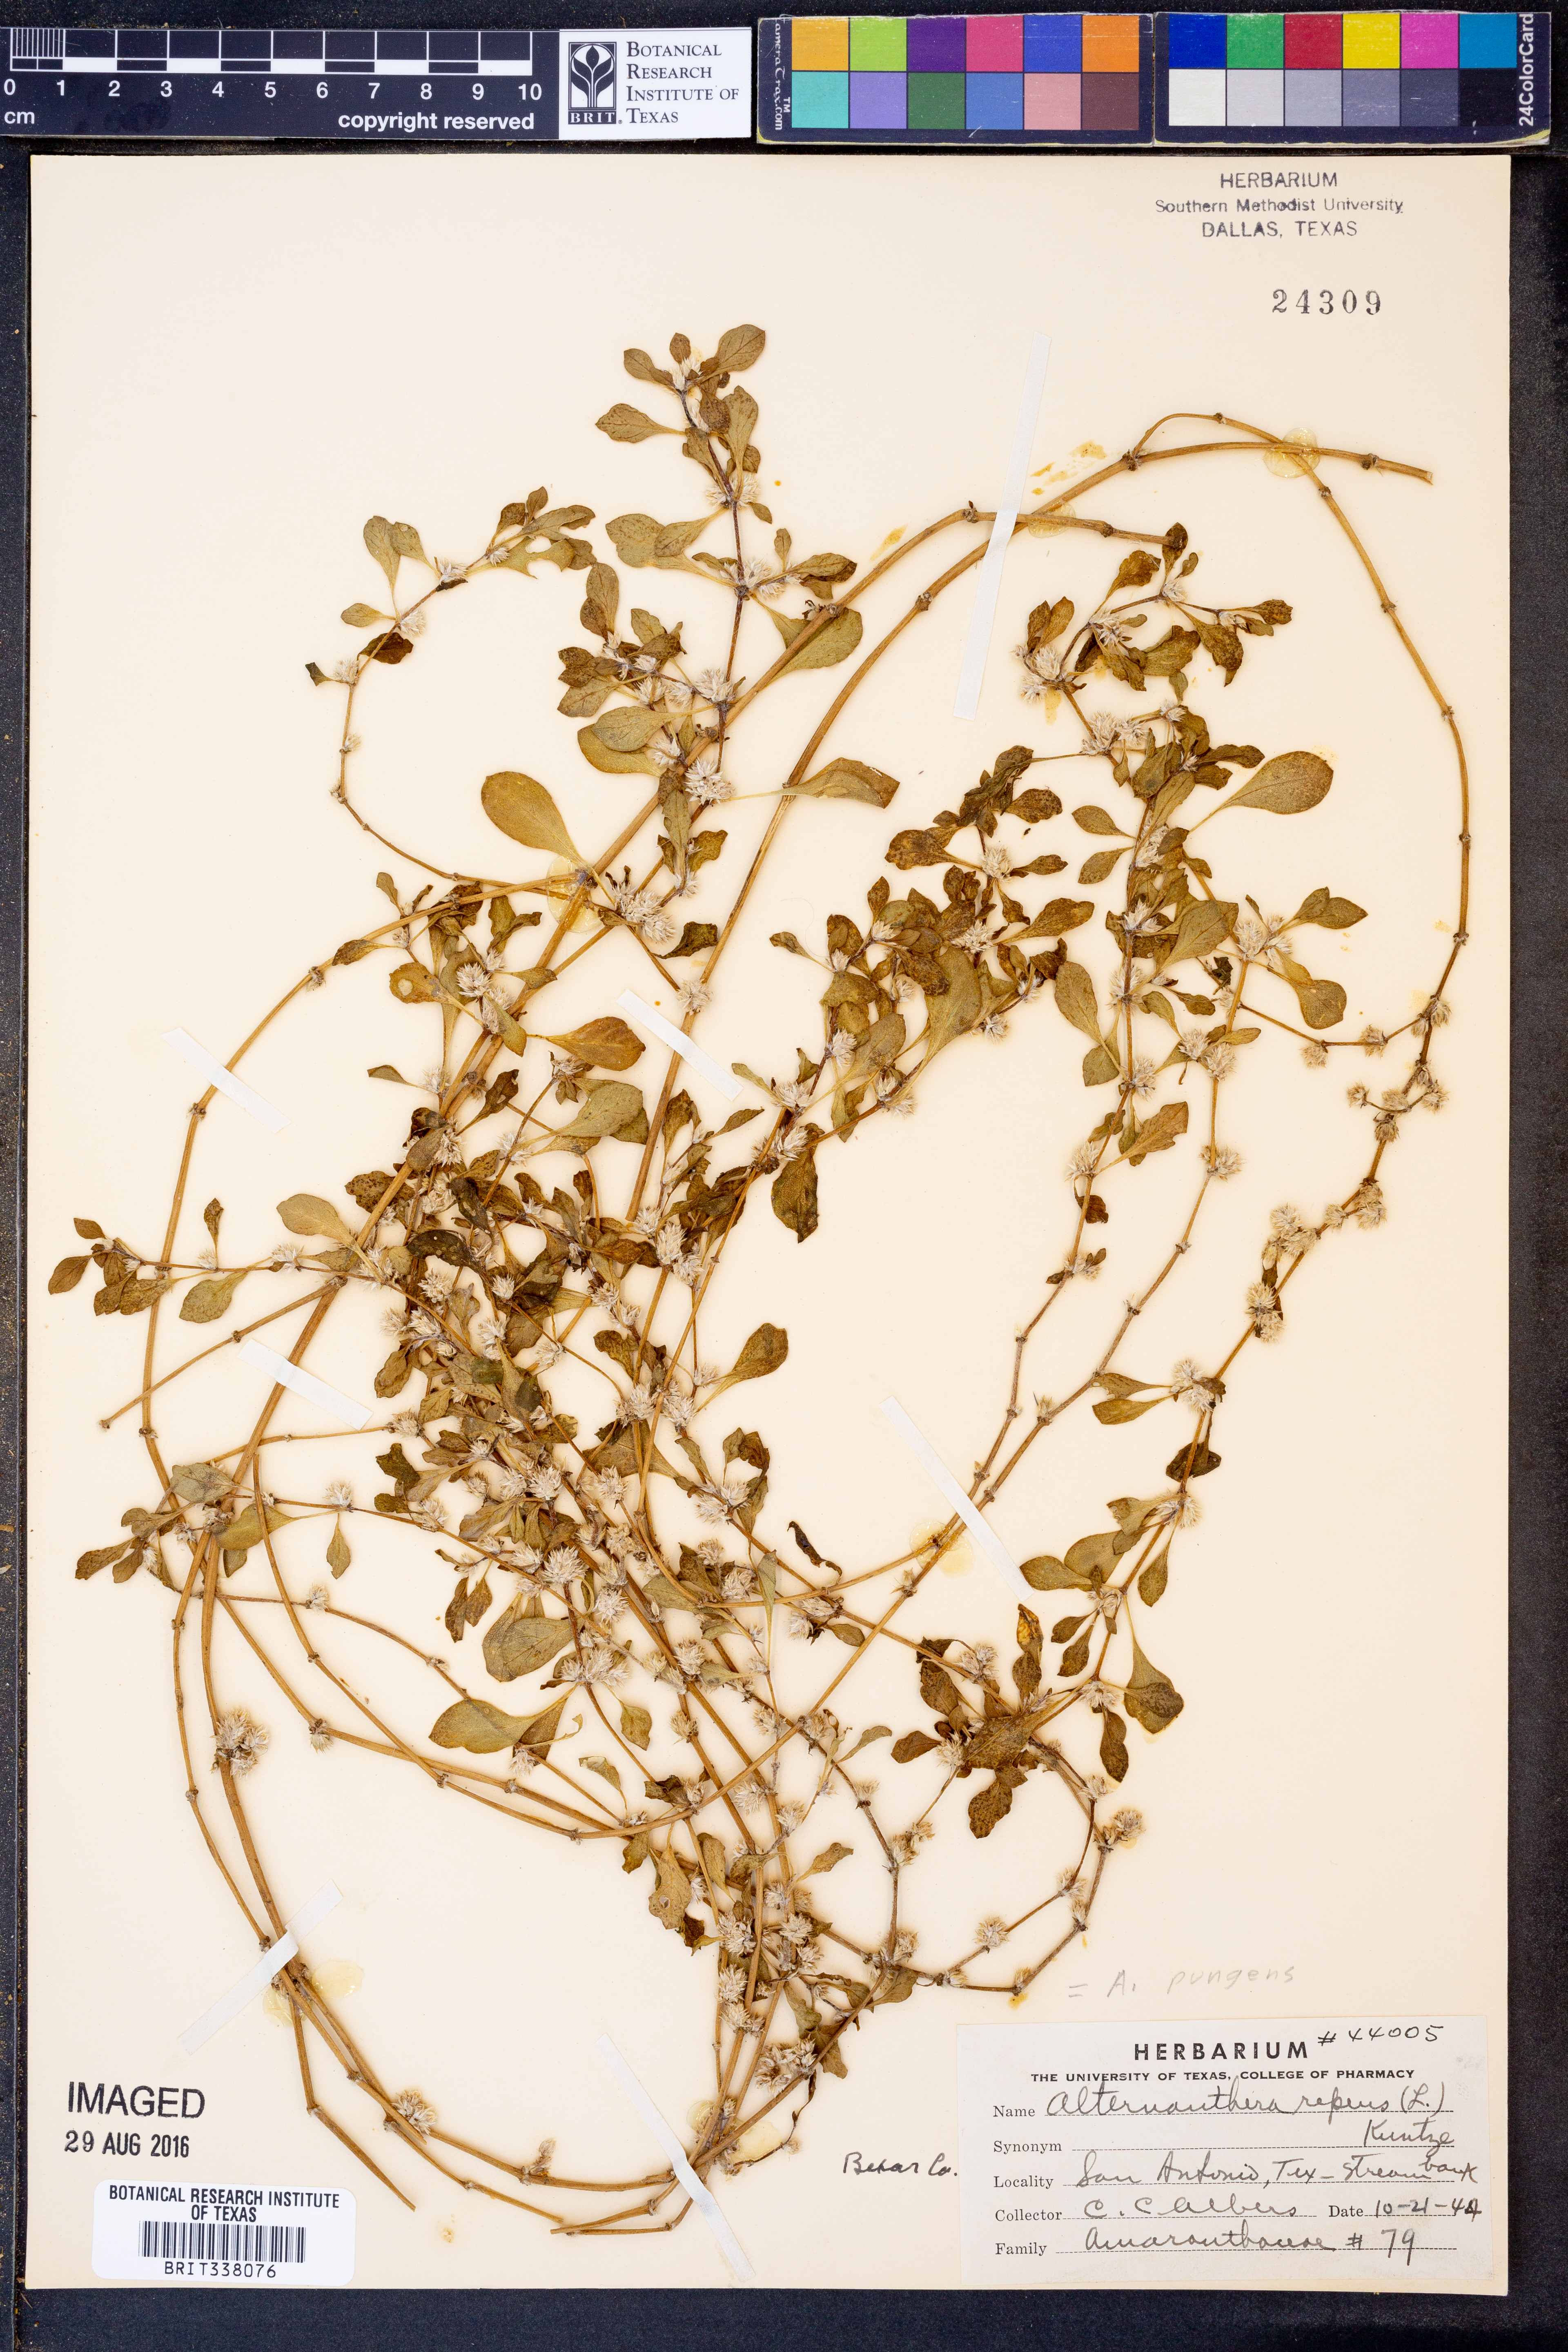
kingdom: Plantae
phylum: Tracheophyta
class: Magnoliopsida
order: Caryophyllales
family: Amaranthaceae
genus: Alternanthera
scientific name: Alternanthera pungens
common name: Khakiweed
